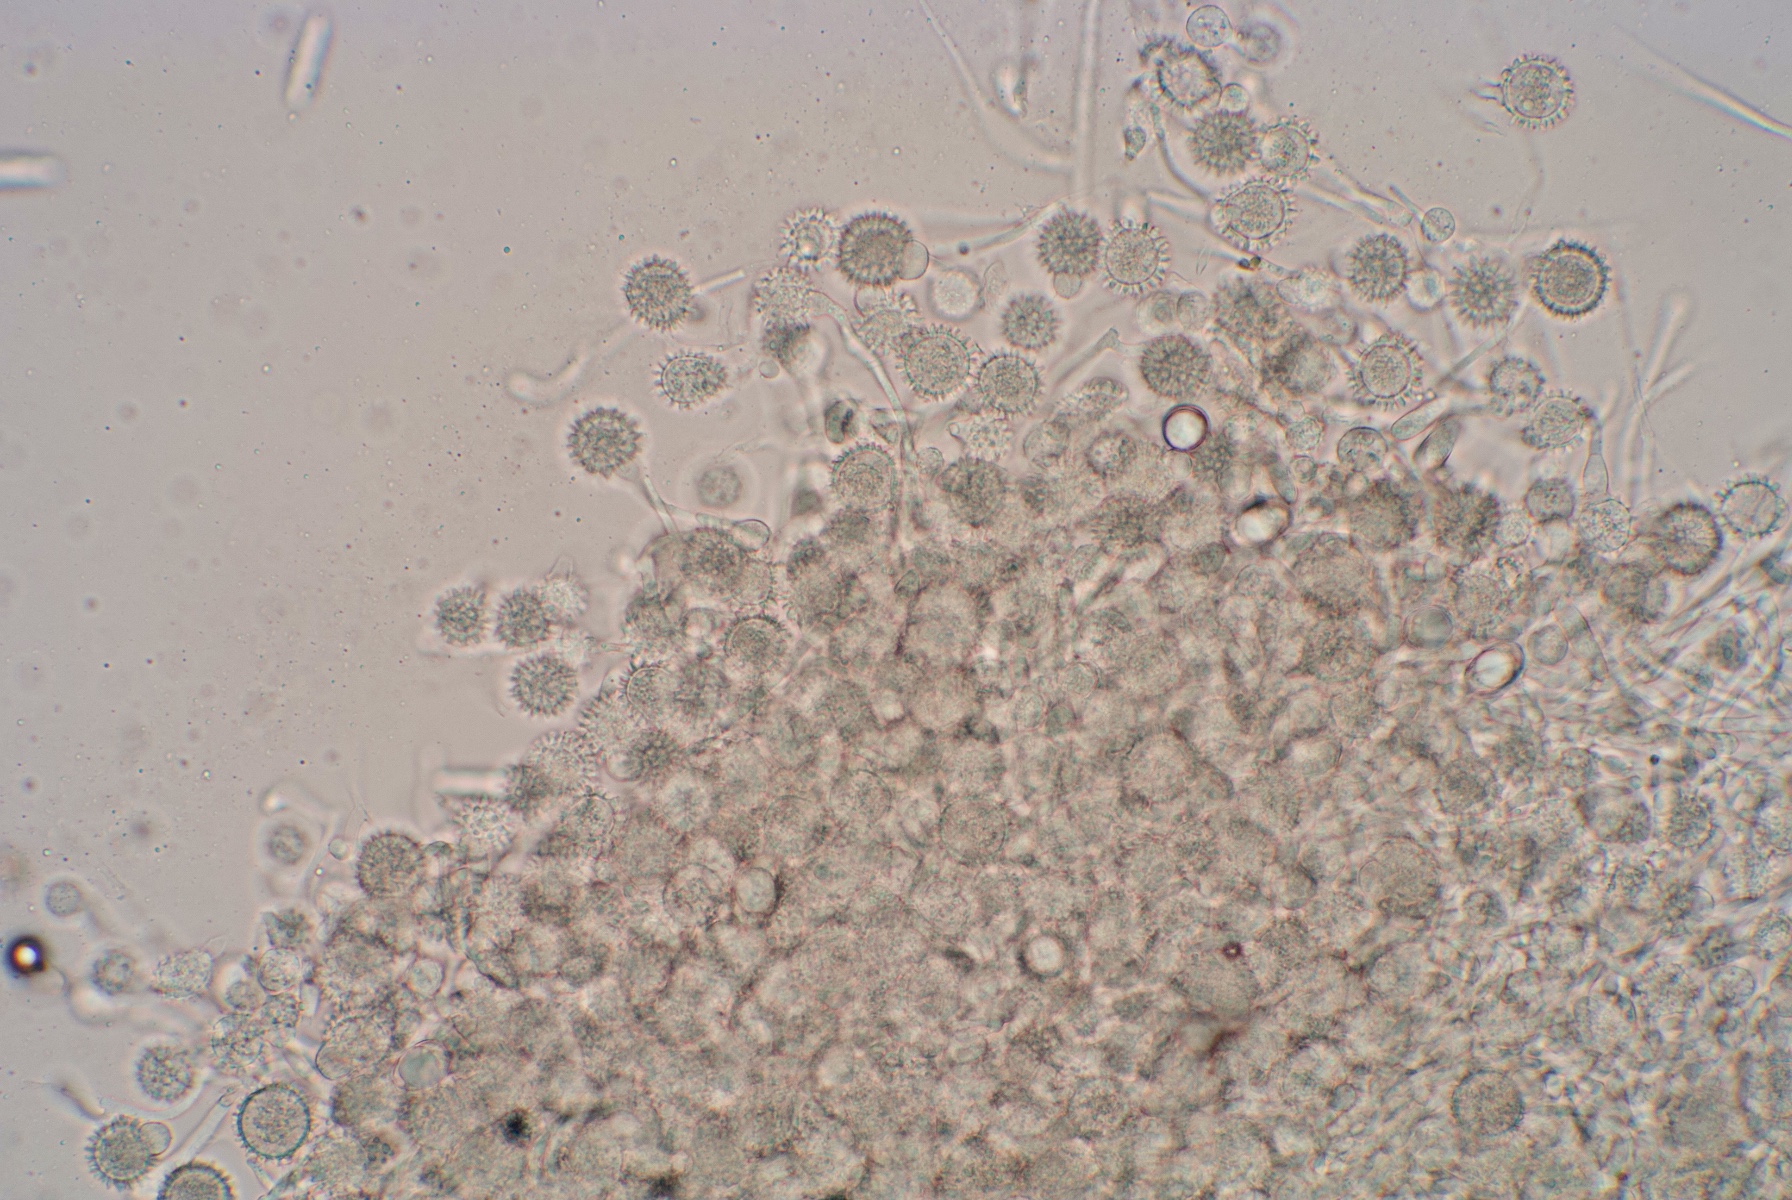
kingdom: Fungi
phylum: Ascomycota
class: Sordariomycetes
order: Hypocreales
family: Hypocreaceae
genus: Hypomyces
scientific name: Hypomyces cervinus
